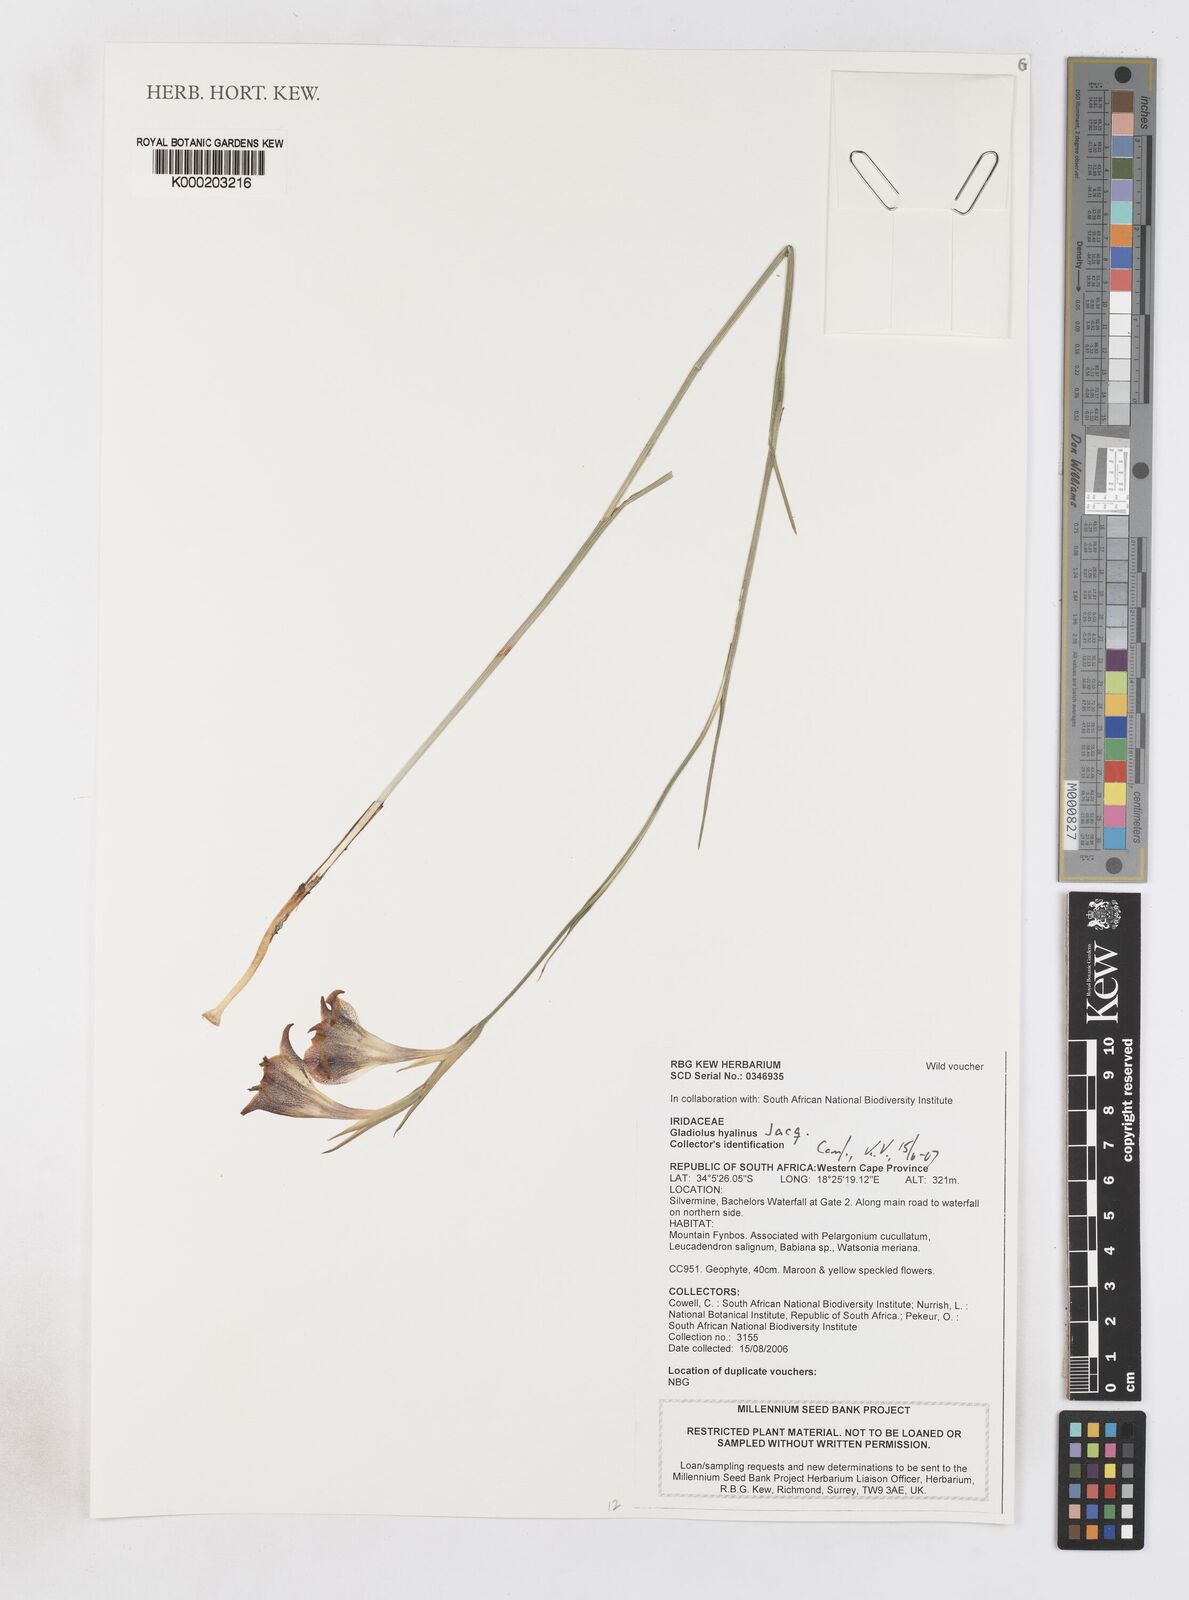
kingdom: Plantae
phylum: Tracheophyta
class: Liliopsida
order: Asparagales
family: Iridaceae
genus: Gladiolus
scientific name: Gladiolus hyalinus
